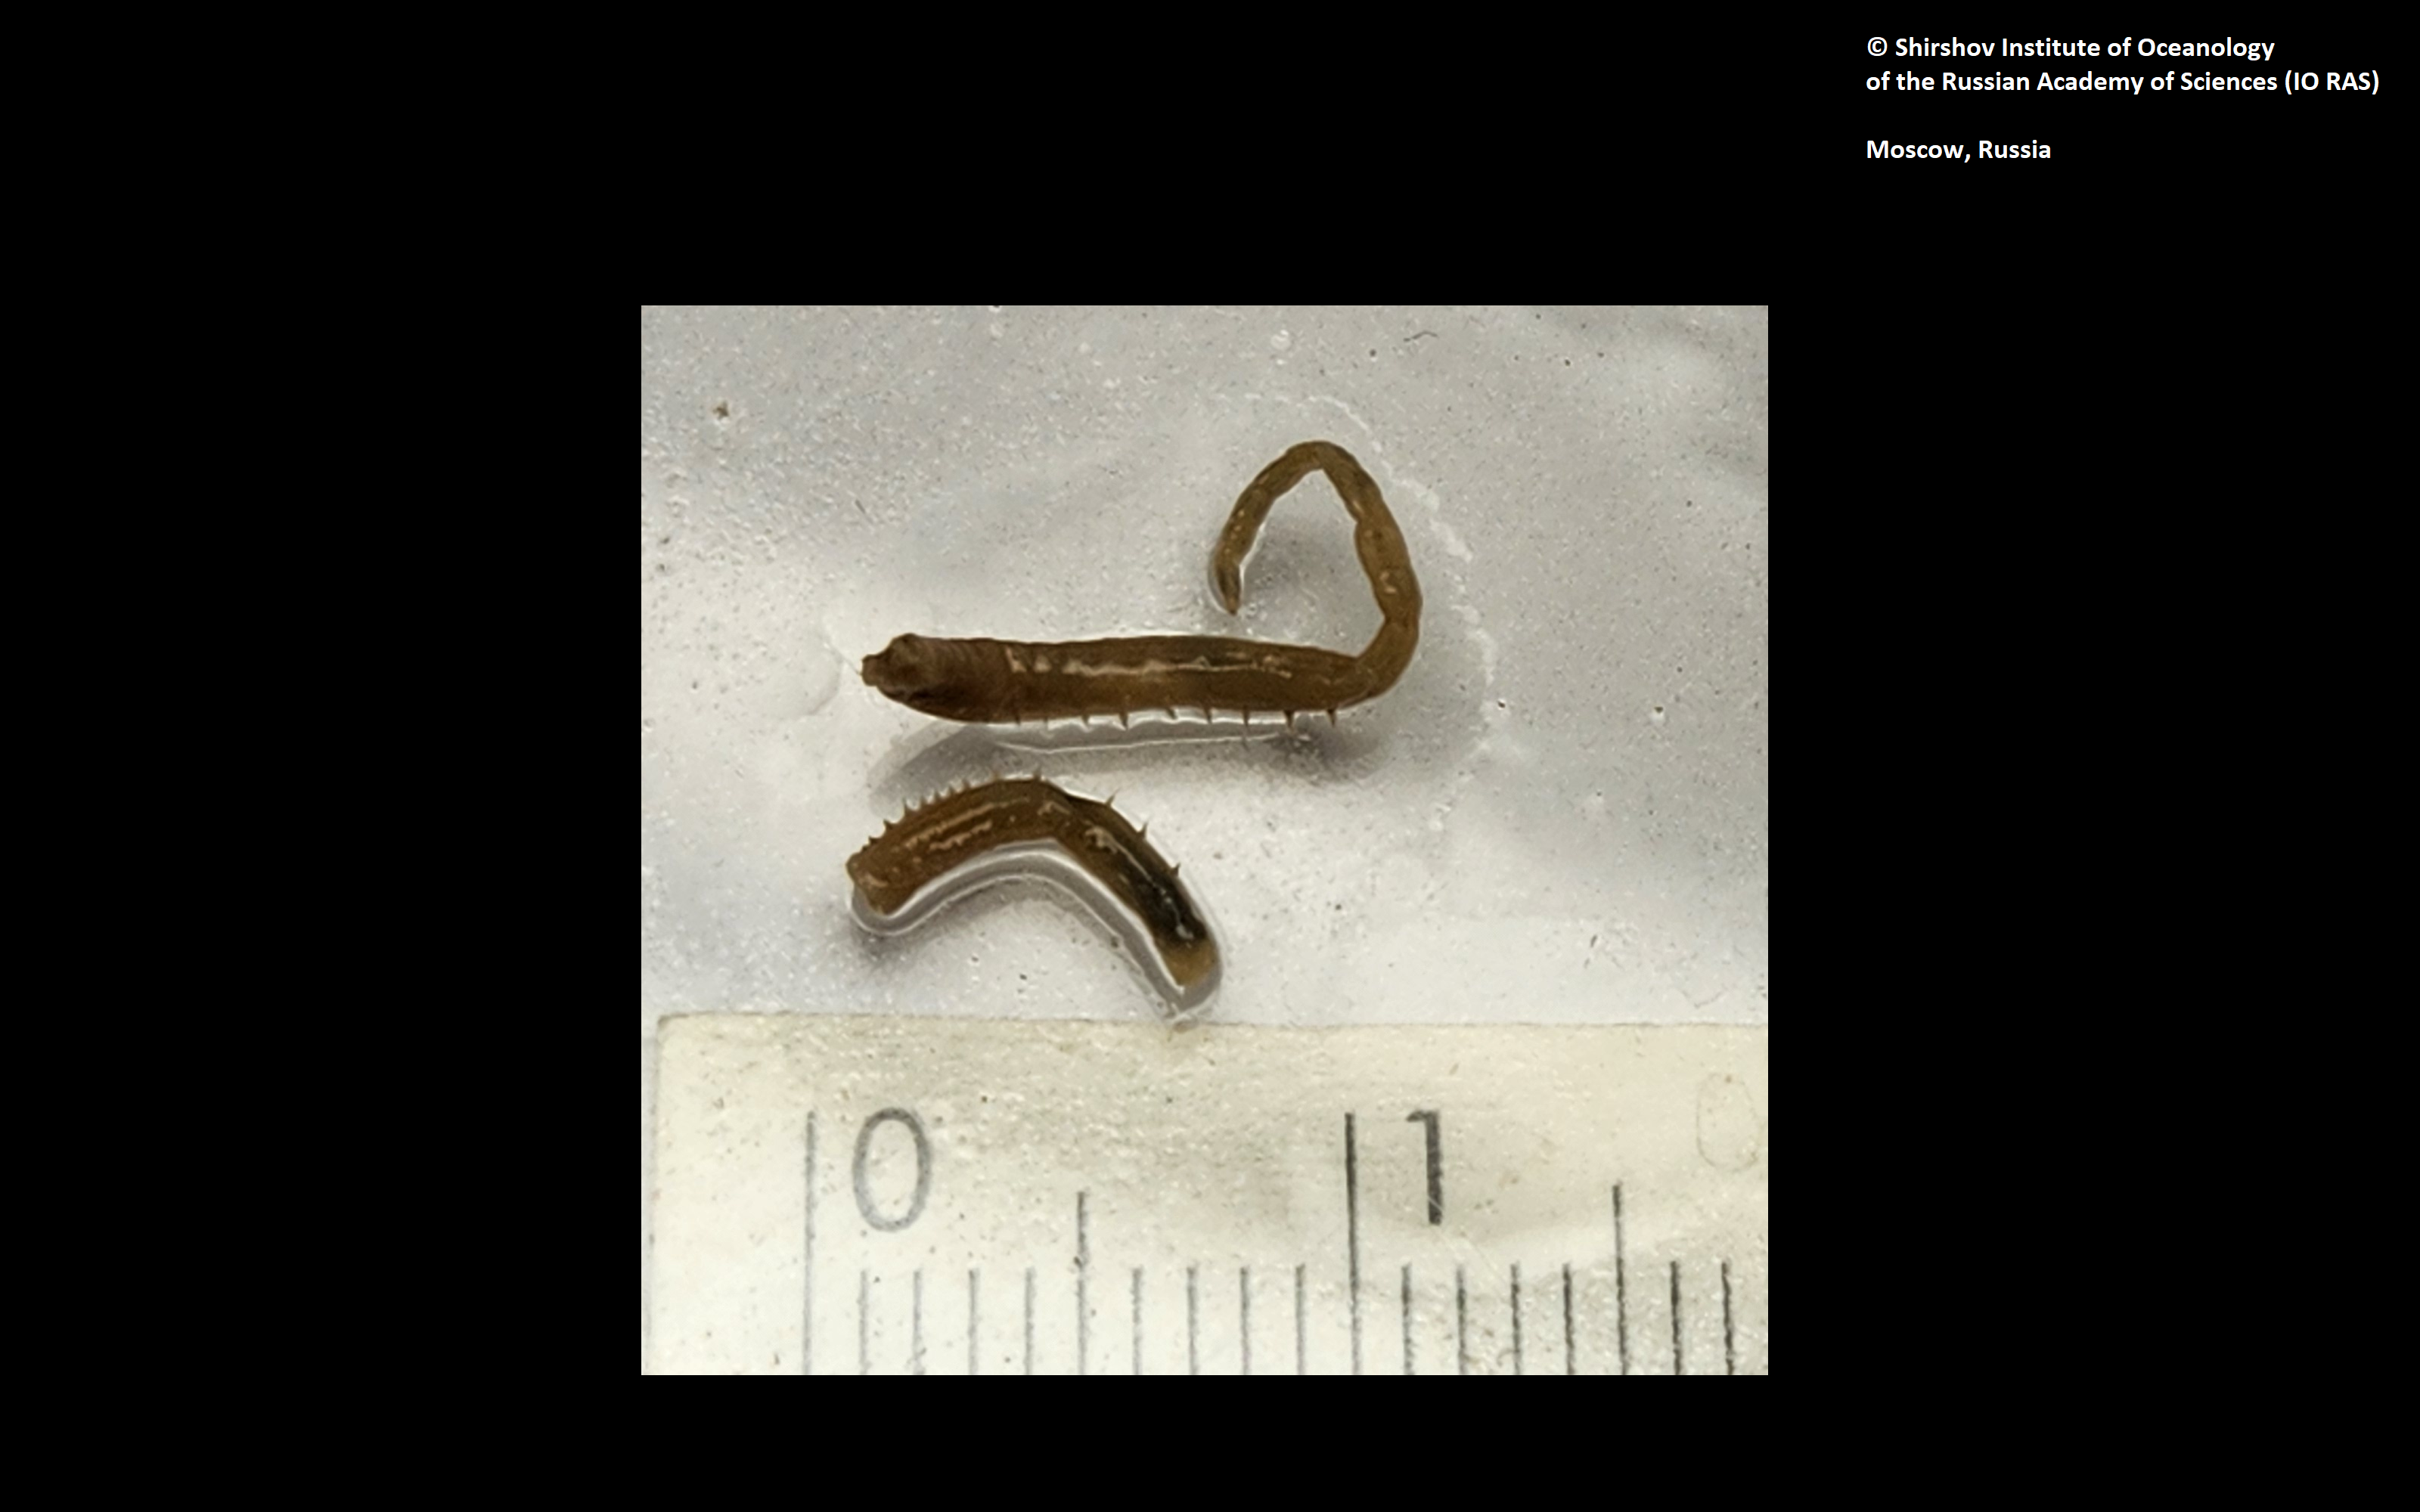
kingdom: Animalia
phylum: Annelida
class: Polychaeta
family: Ampharetidae
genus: Anobothrus
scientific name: Anobothrus mironovi
